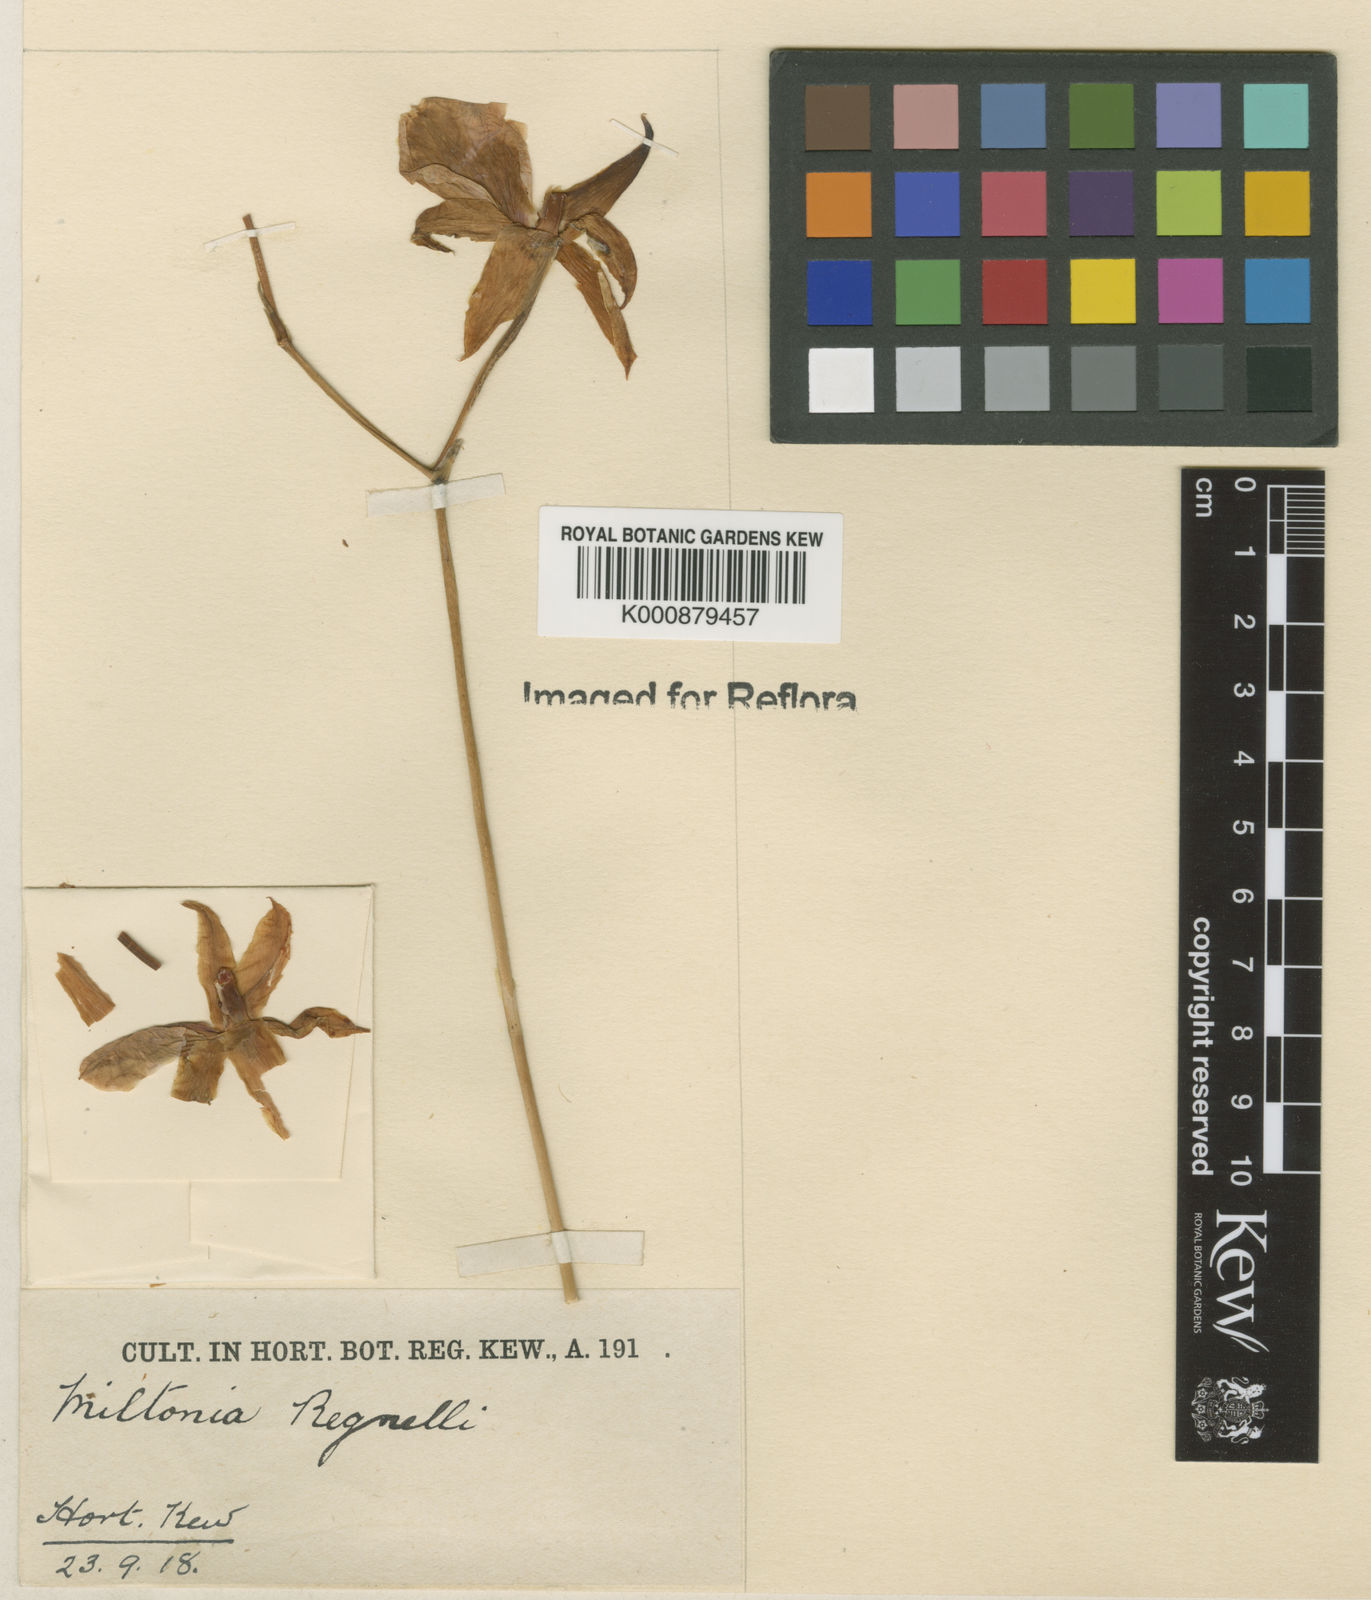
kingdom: Plantae
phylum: Tracheophyta
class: Liliopsida
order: Asparagales
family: Orchidaceae
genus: Miltonia
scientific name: Miltonia regnellii
